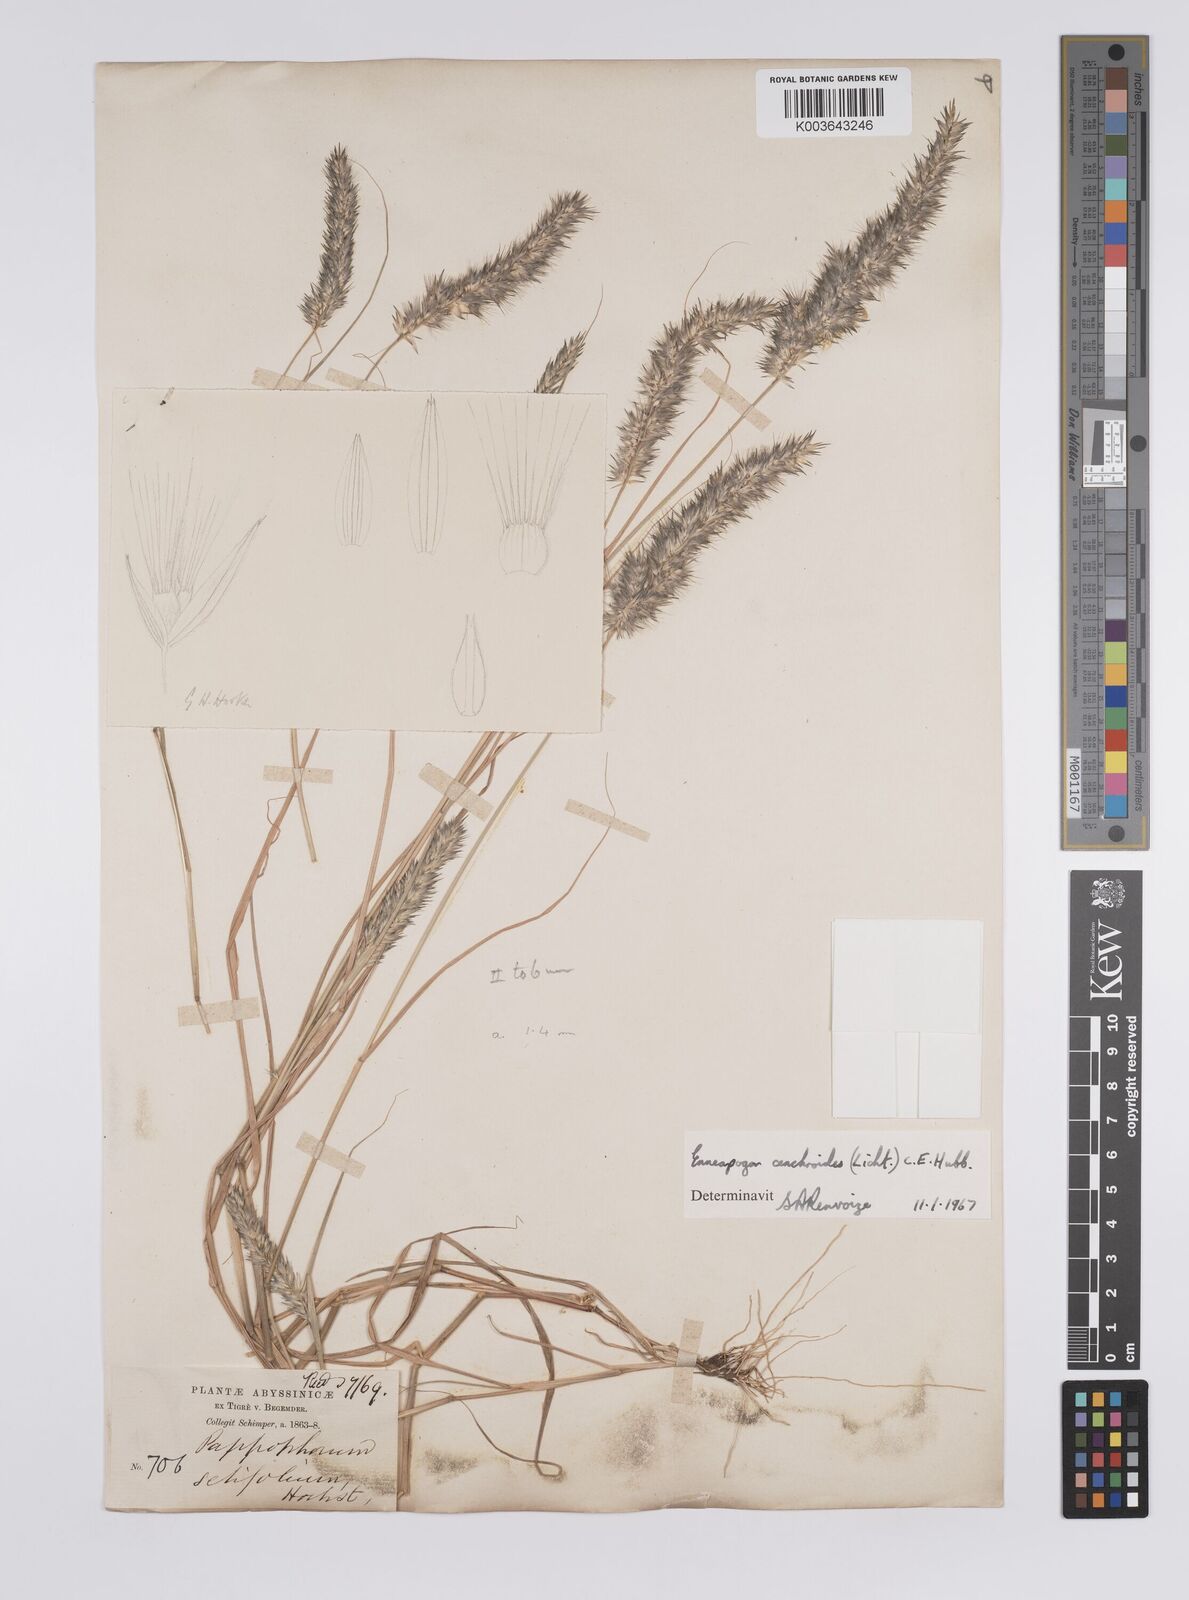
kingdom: Plantae
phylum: Tracheophyta
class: Liliopsida
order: Poales
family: Poaceae
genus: Enneapogon
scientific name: Enneapogon cenchroides
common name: Soft feather pappusgrass
